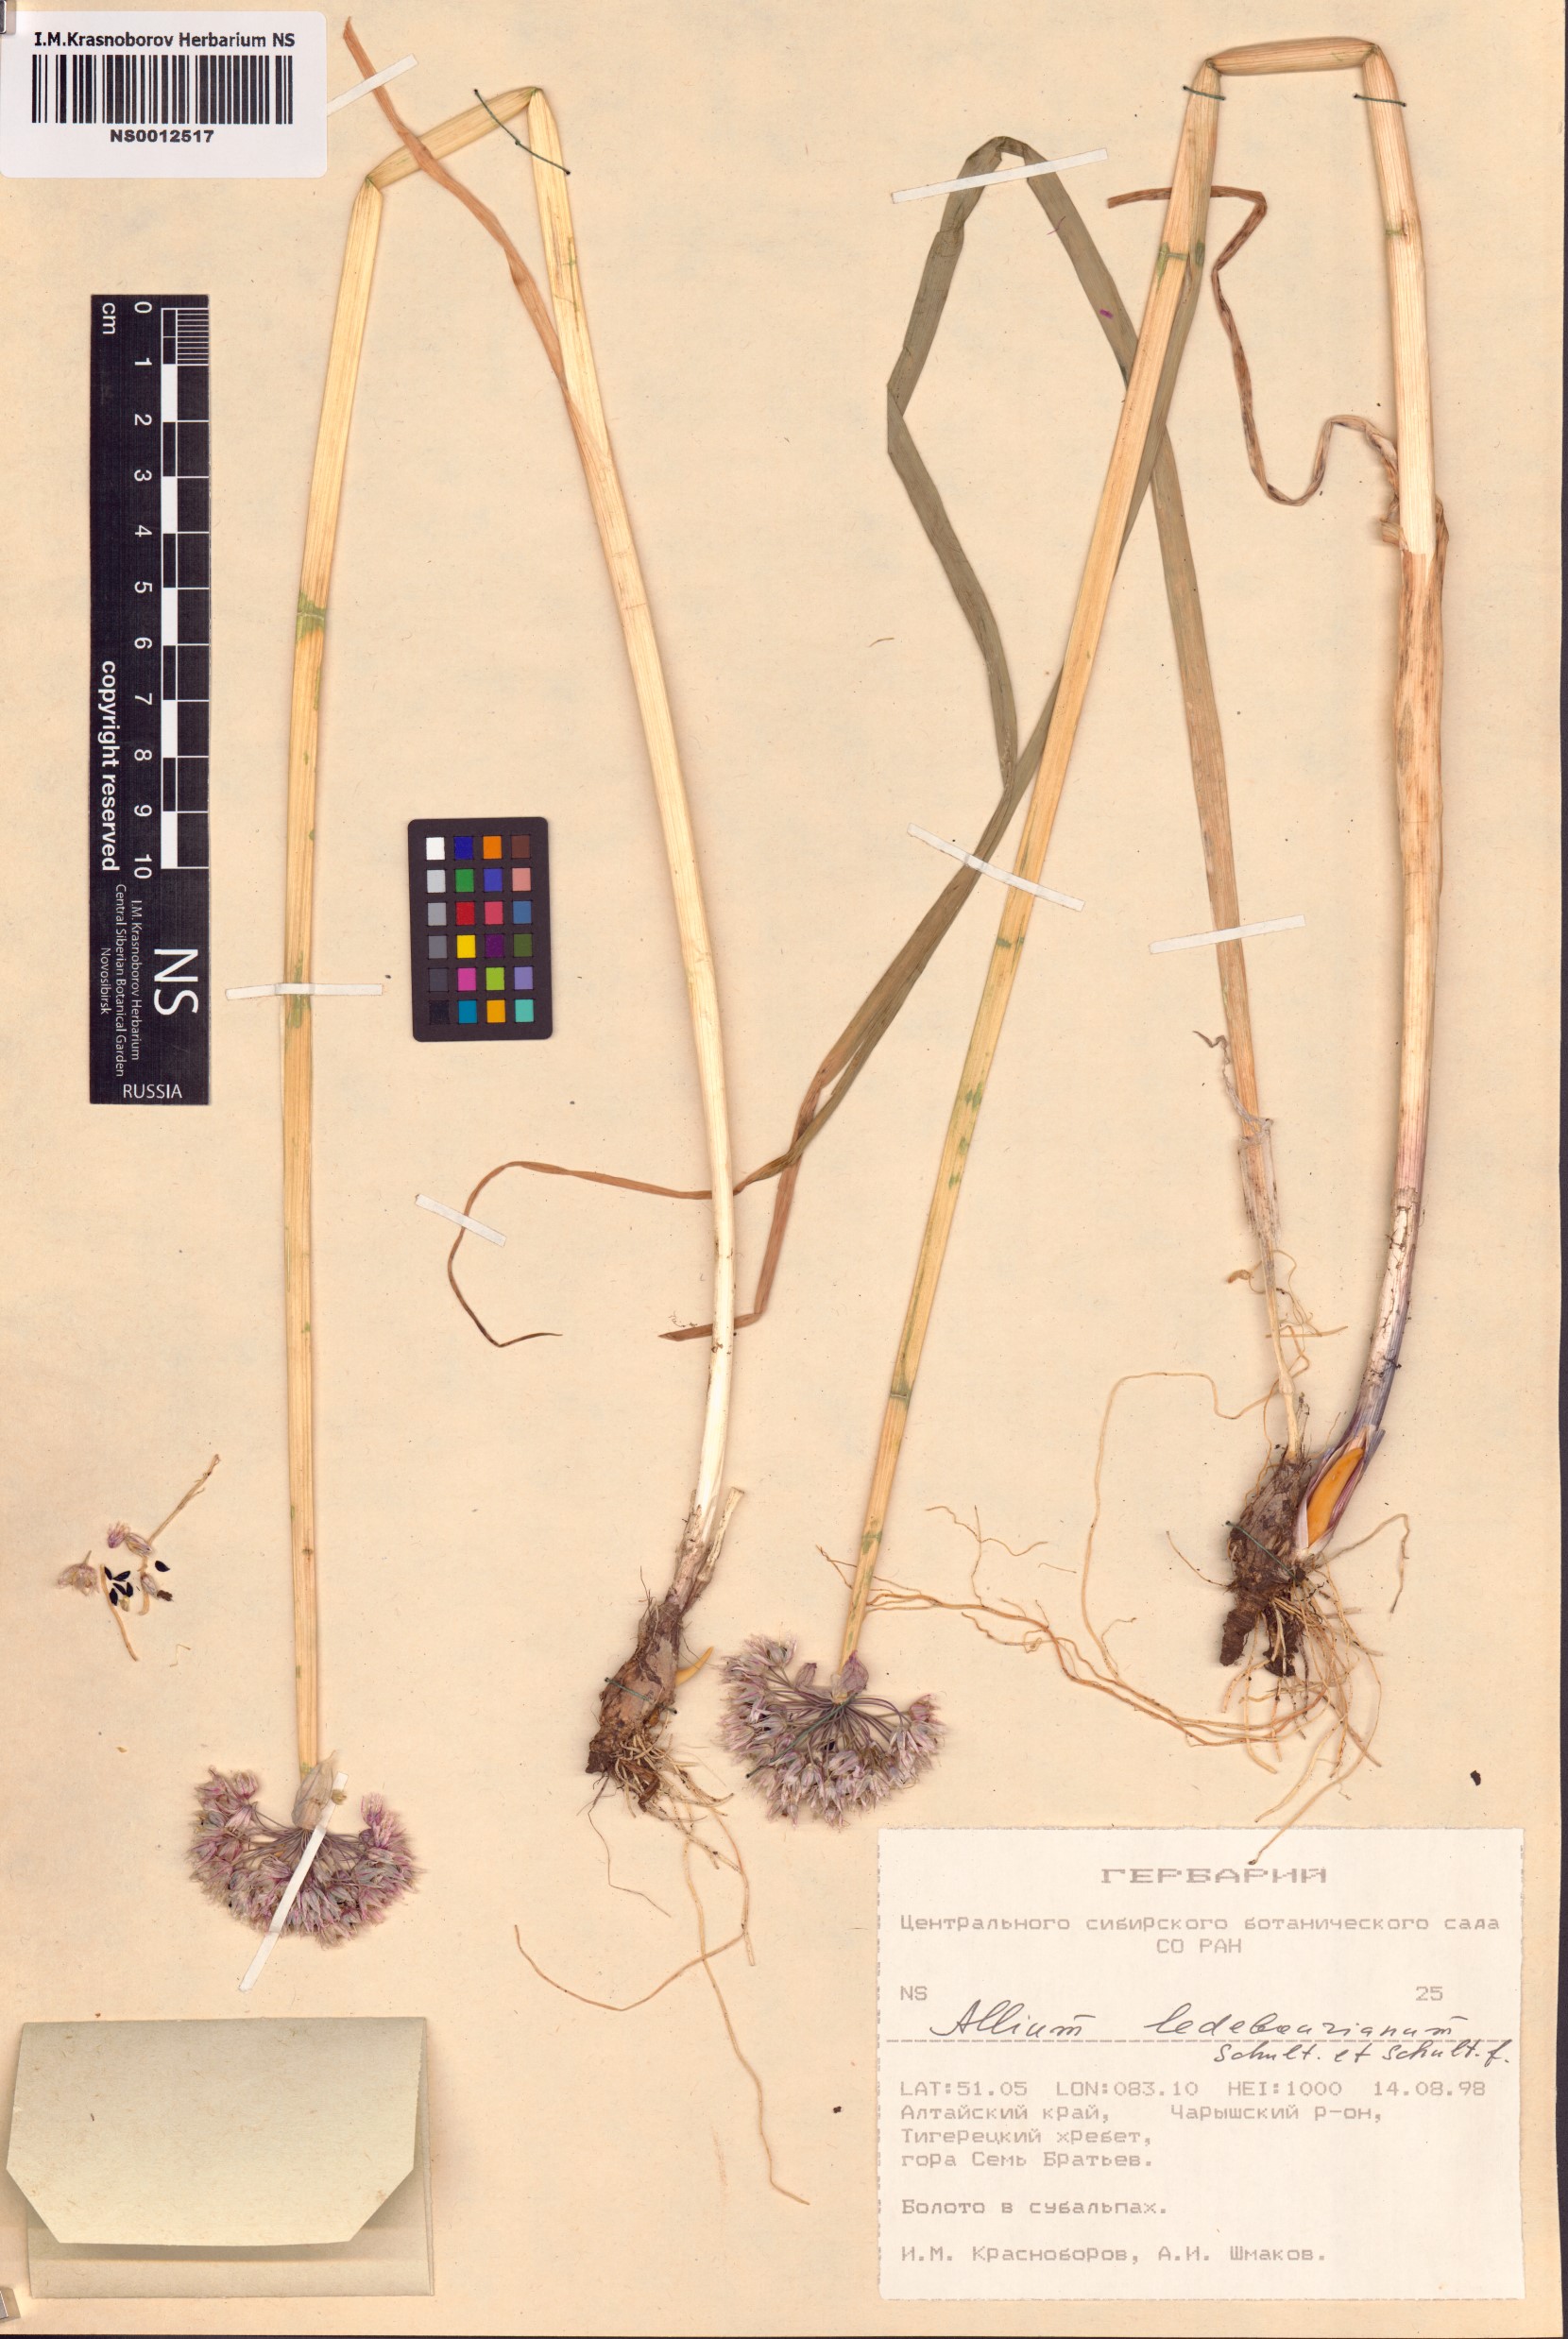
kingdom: Plantae
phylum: Tracheophyta
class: Liliopsida
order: Asparagales
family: Amaryllidaceae
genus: Allium
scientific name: Allium ledebourianum
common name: Ledebour chive
